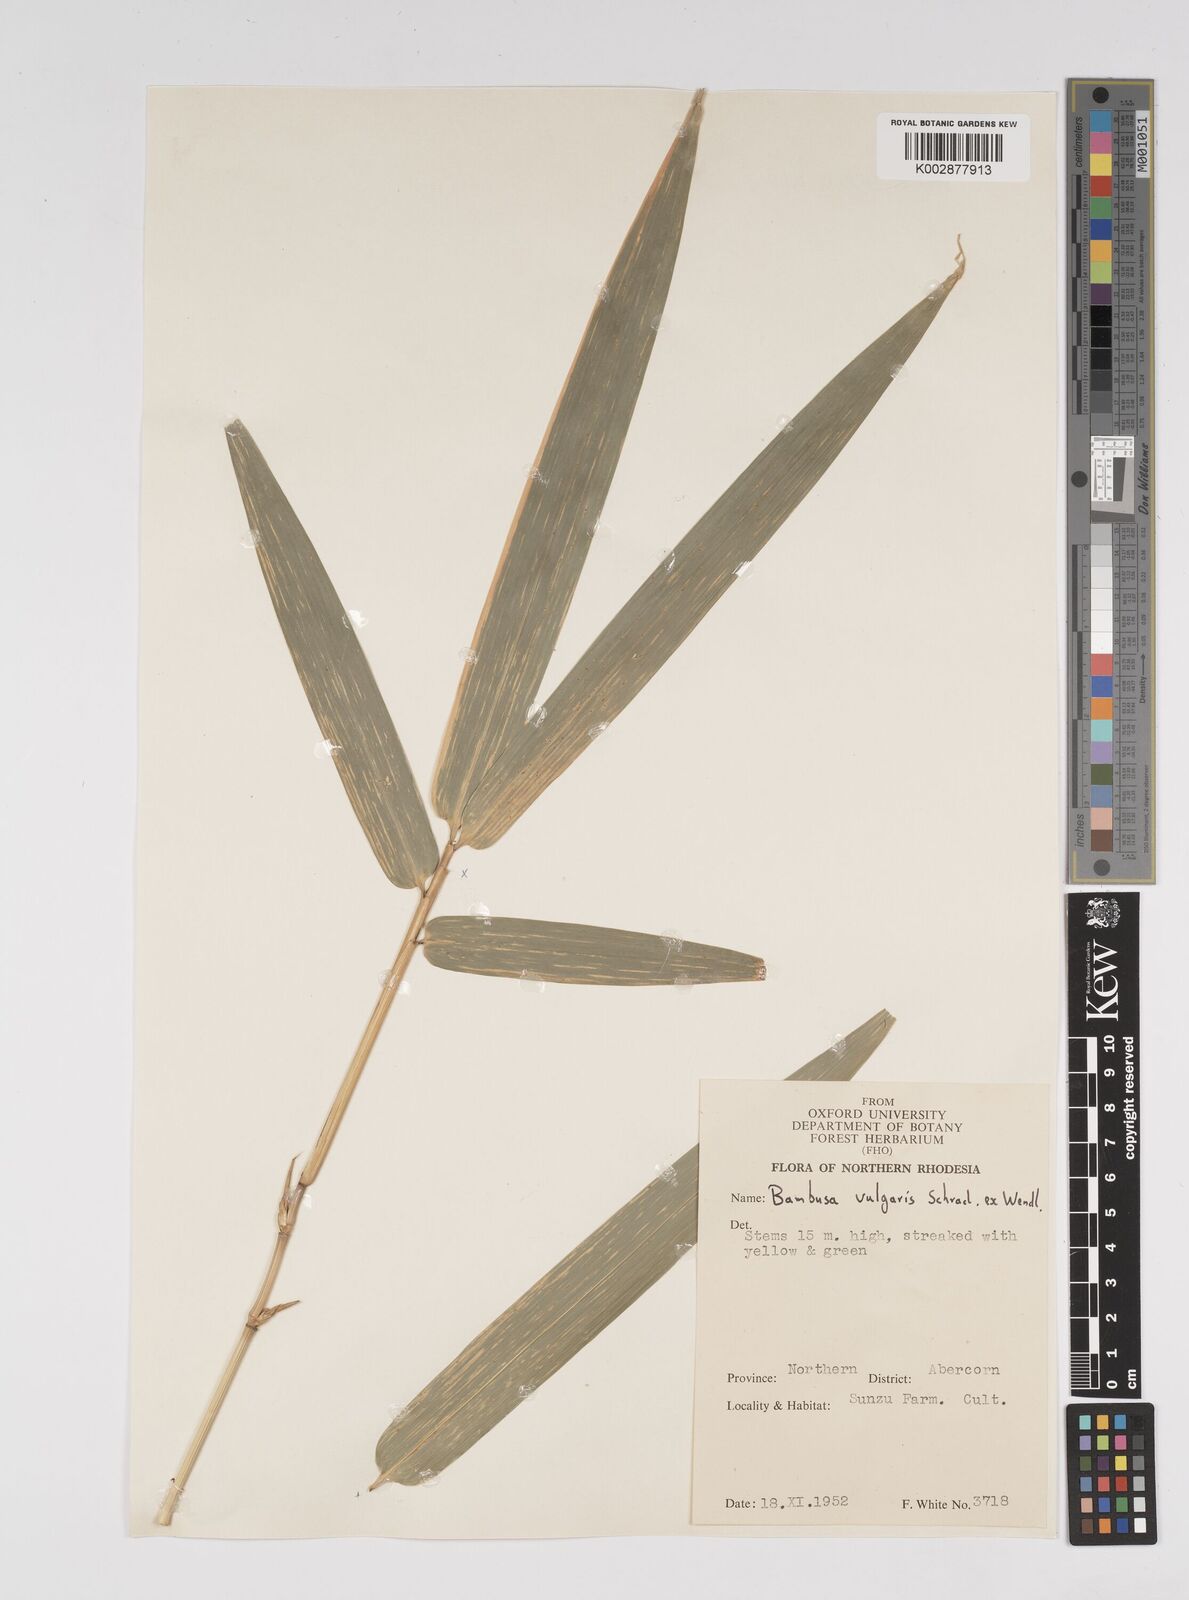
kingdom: Plantae
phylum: Tracheophyta
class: Liliopsida
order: Poales
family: Poaceae
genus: Bambusa
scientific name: Bambusa vulgaris
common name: Common bamboo
